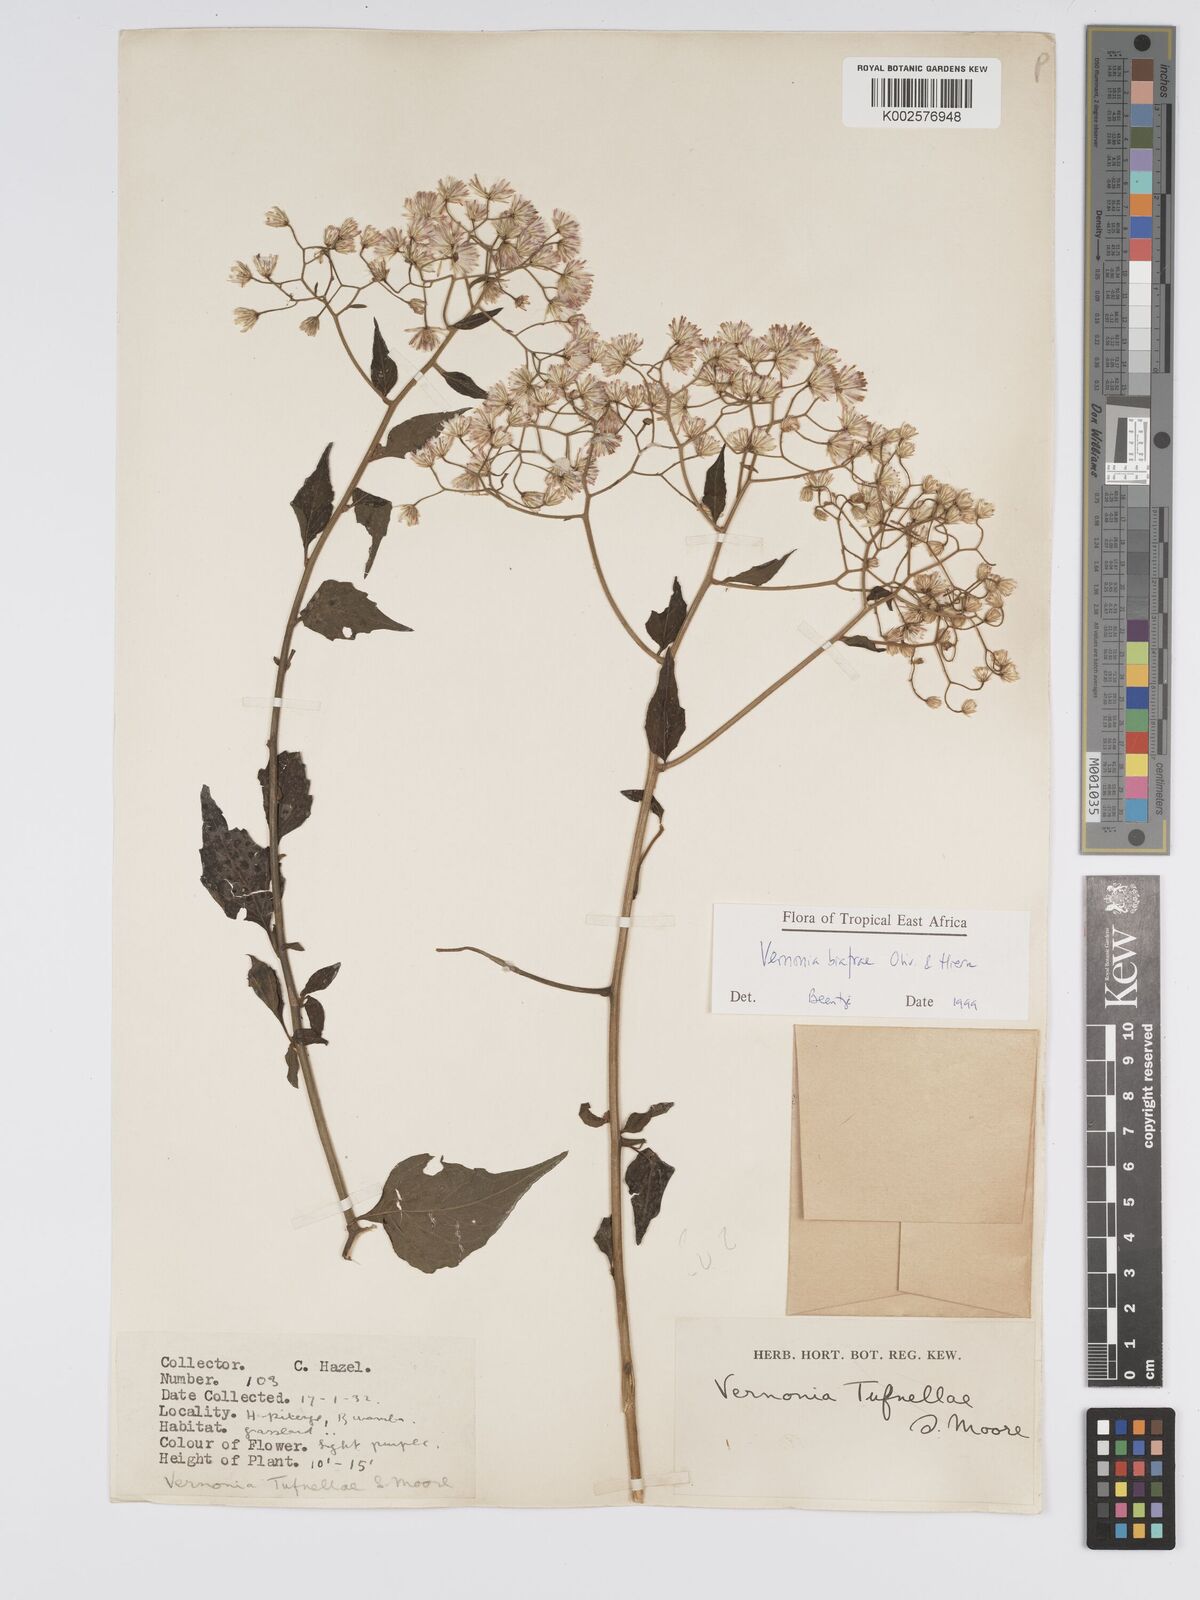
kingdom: Plantae
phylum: Tracheophyta
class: Magnoliopsida
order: Asterales
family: Asteraceae
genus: Distephanus
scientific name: Distephanus biafrae
